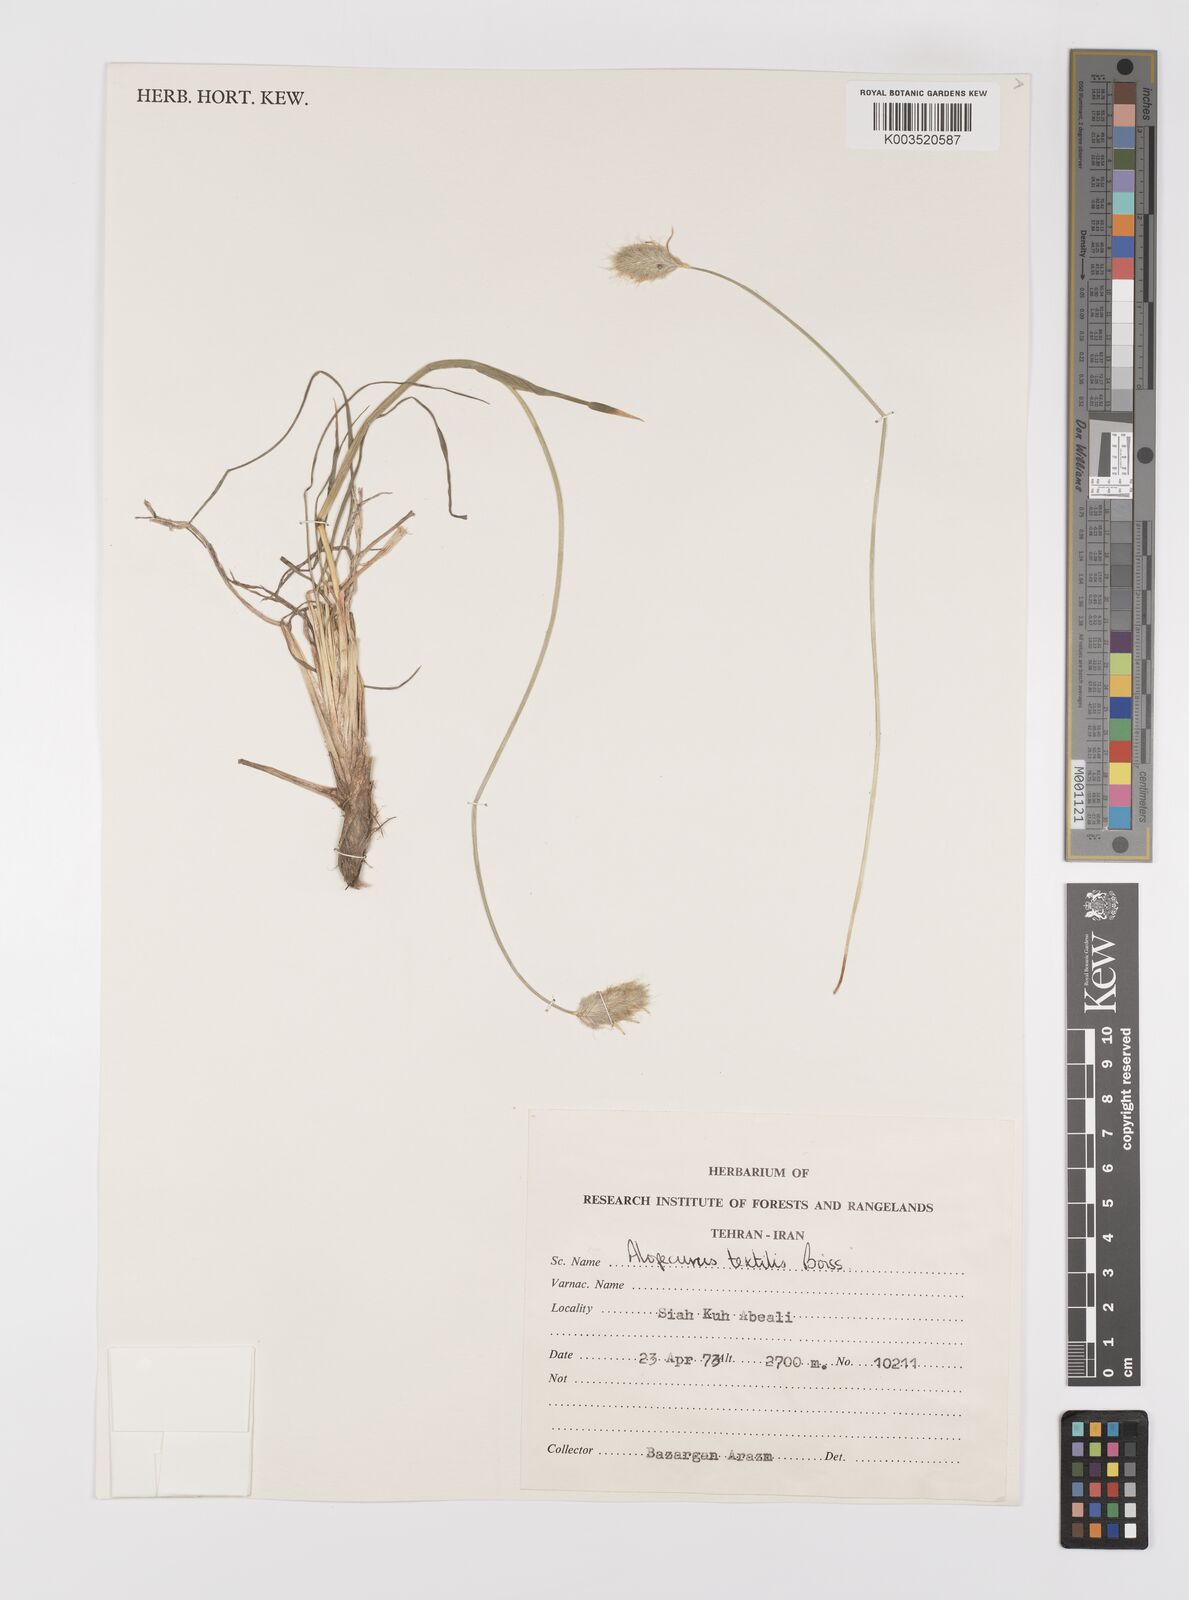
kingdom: Plantae
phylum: Tracheophyta
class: Liliopsida
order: Poales
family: Poaceae
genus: Alopecurus
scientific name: Alopecurus textilis
